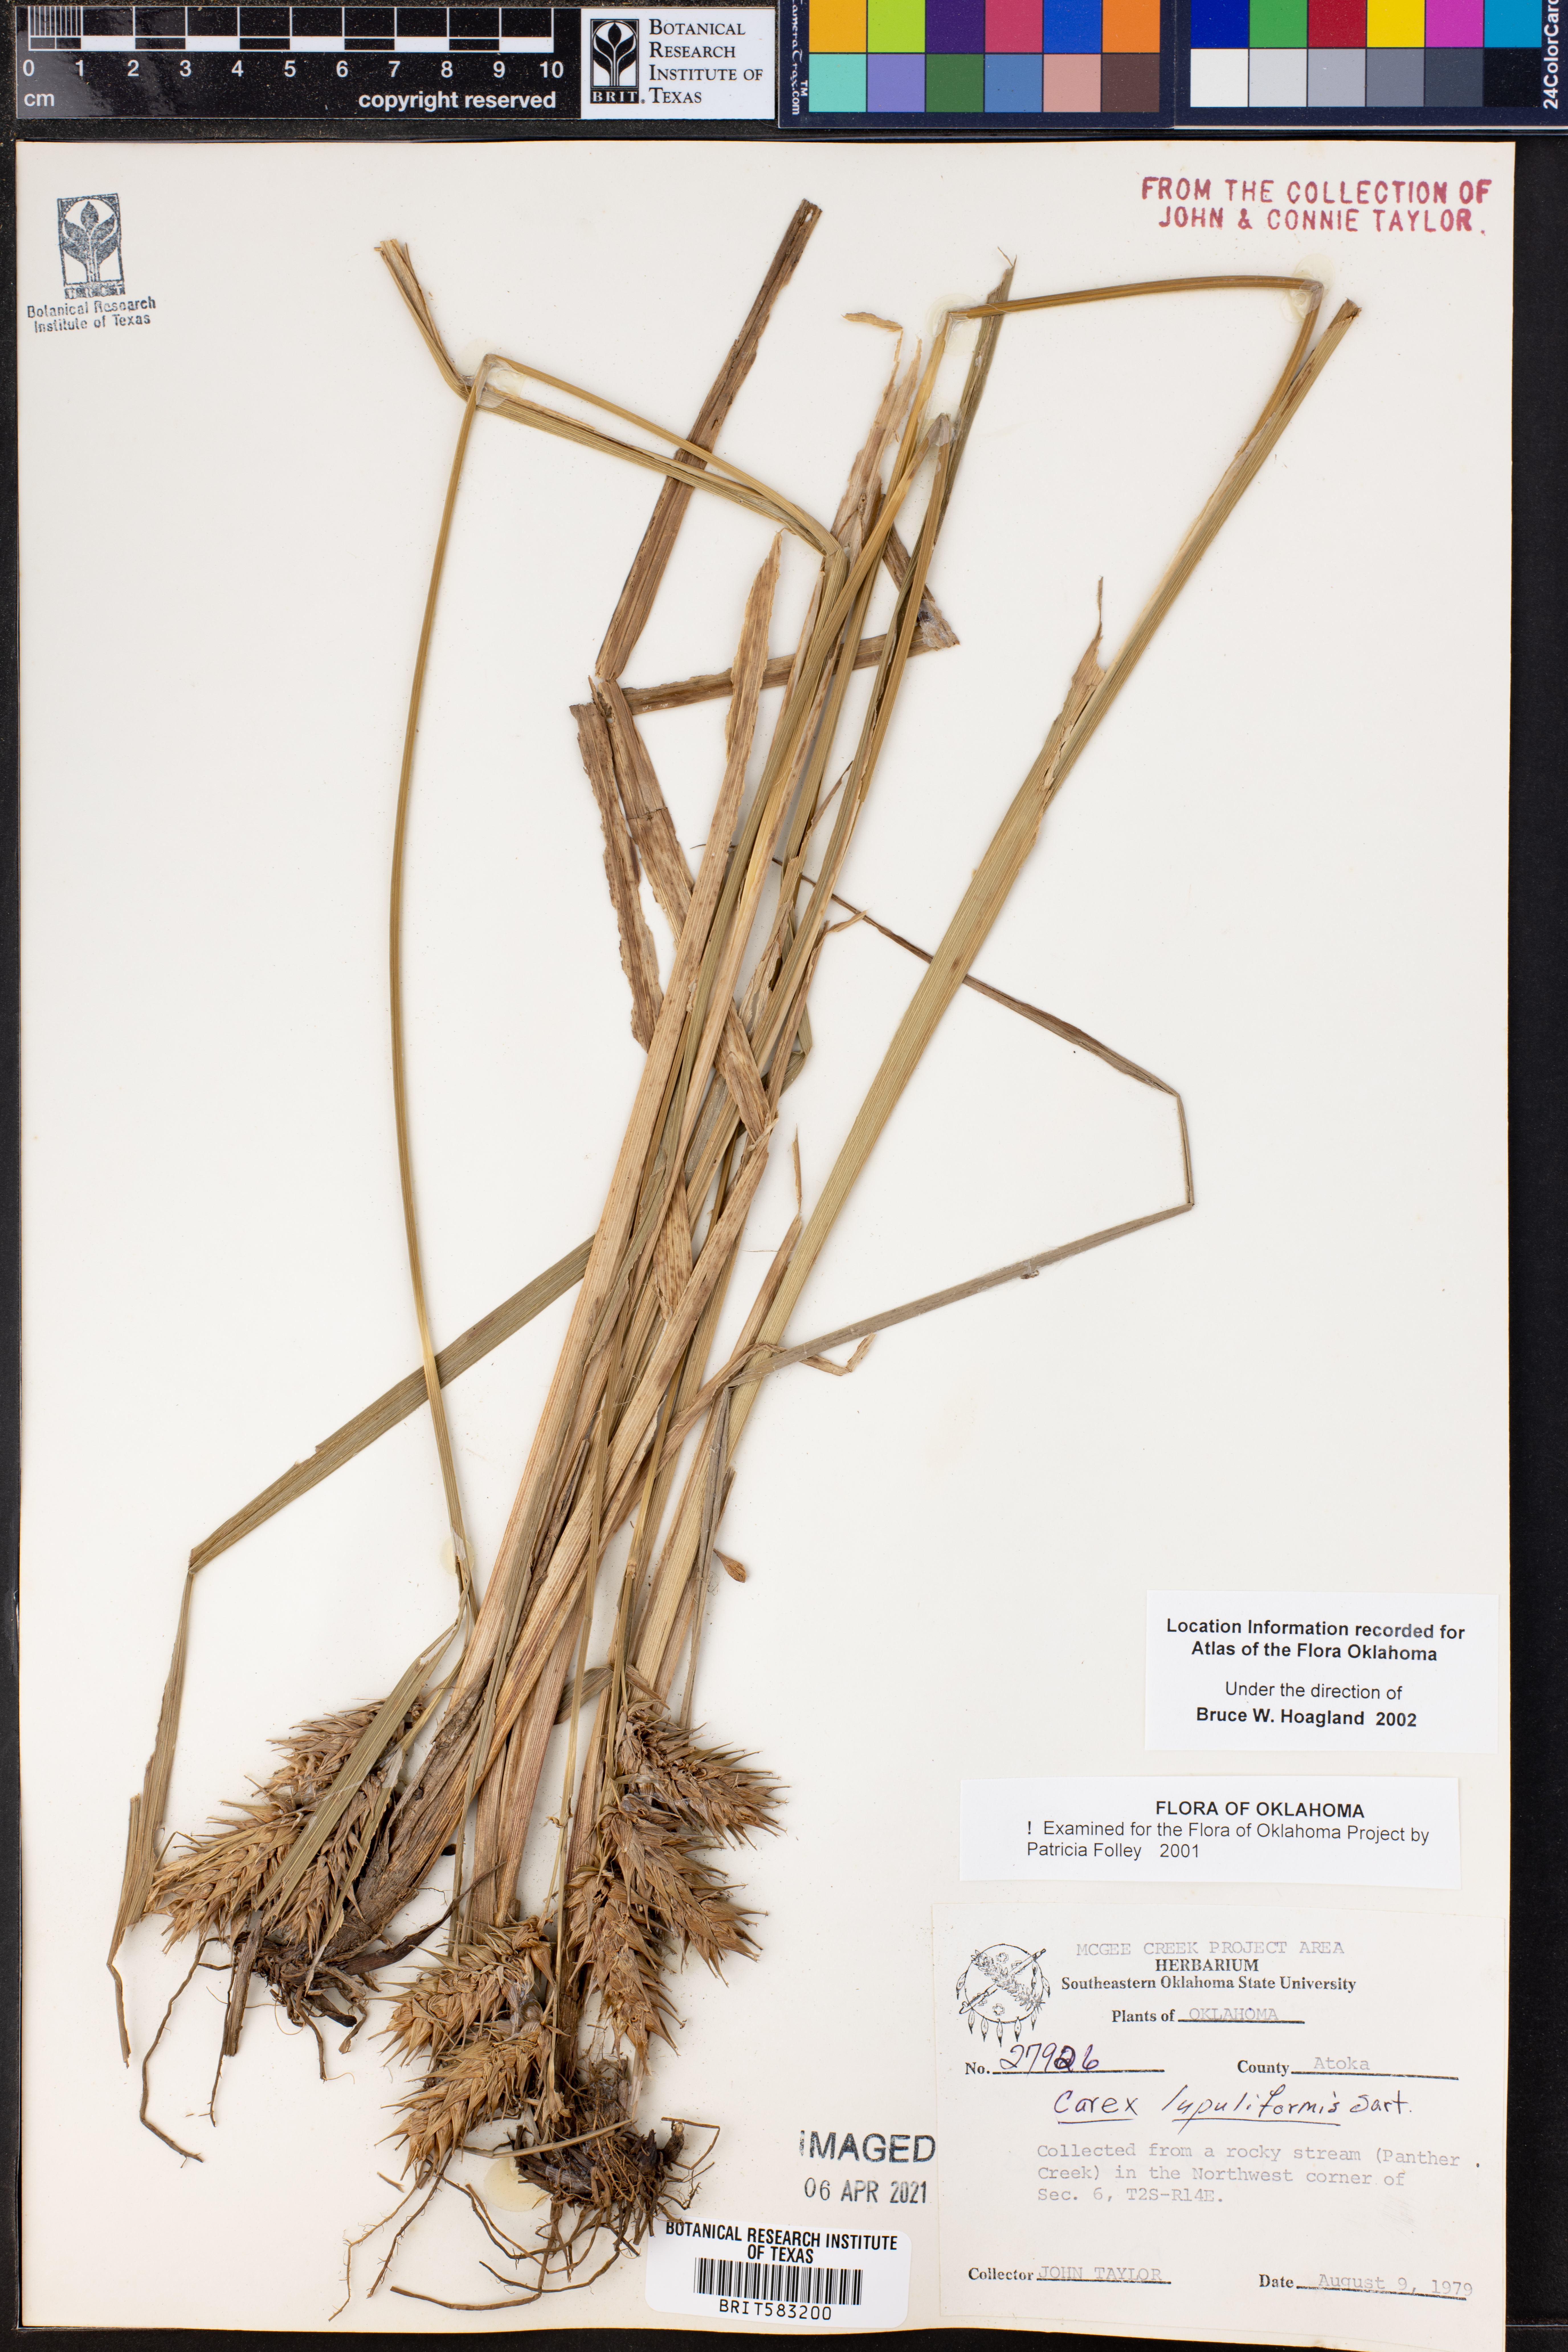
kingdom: Plantae
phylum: Tracheophyta
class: Liliopsida
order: Poales
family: Cyperaceae
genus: Carex
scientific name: Carex lupuliformis
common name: False hop sedge
